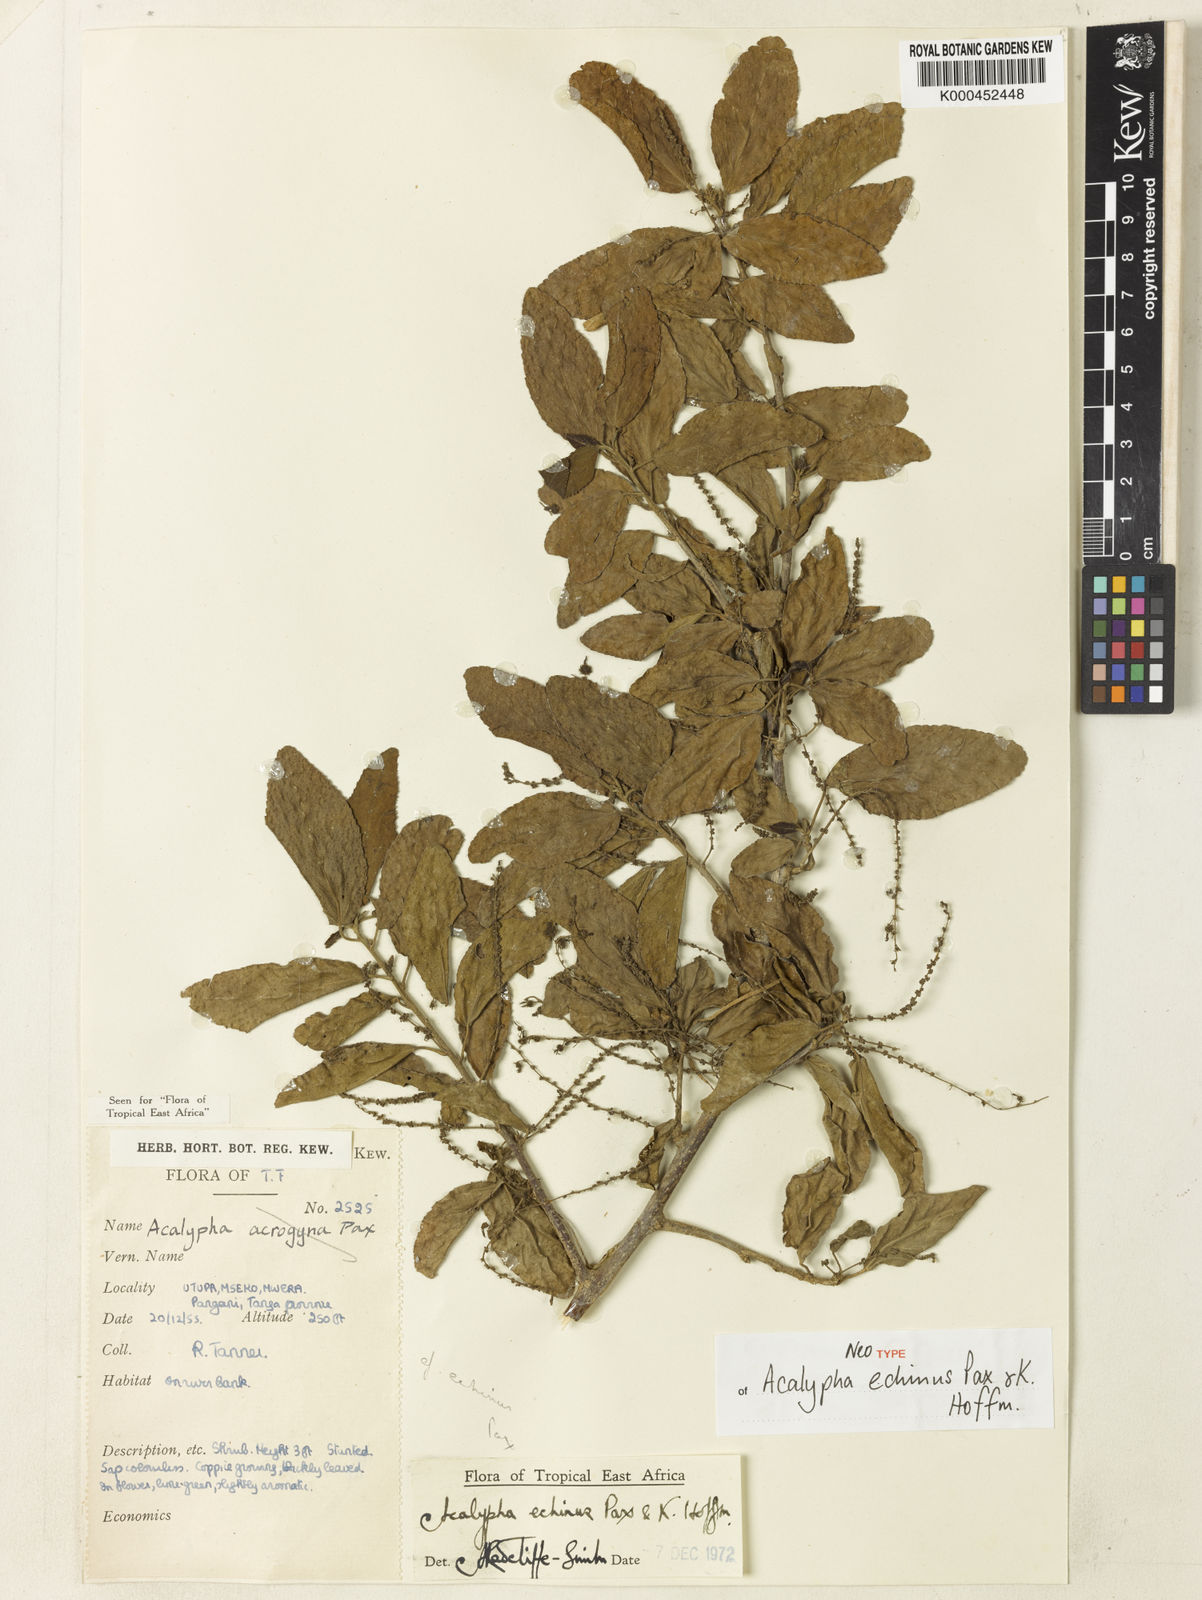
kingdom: Plantae
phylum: Tracheophyta
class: Magnoliopsida
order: Malpighiales
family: Euphorbiaceae
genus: Acalypha
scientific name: Acalypha echinus
